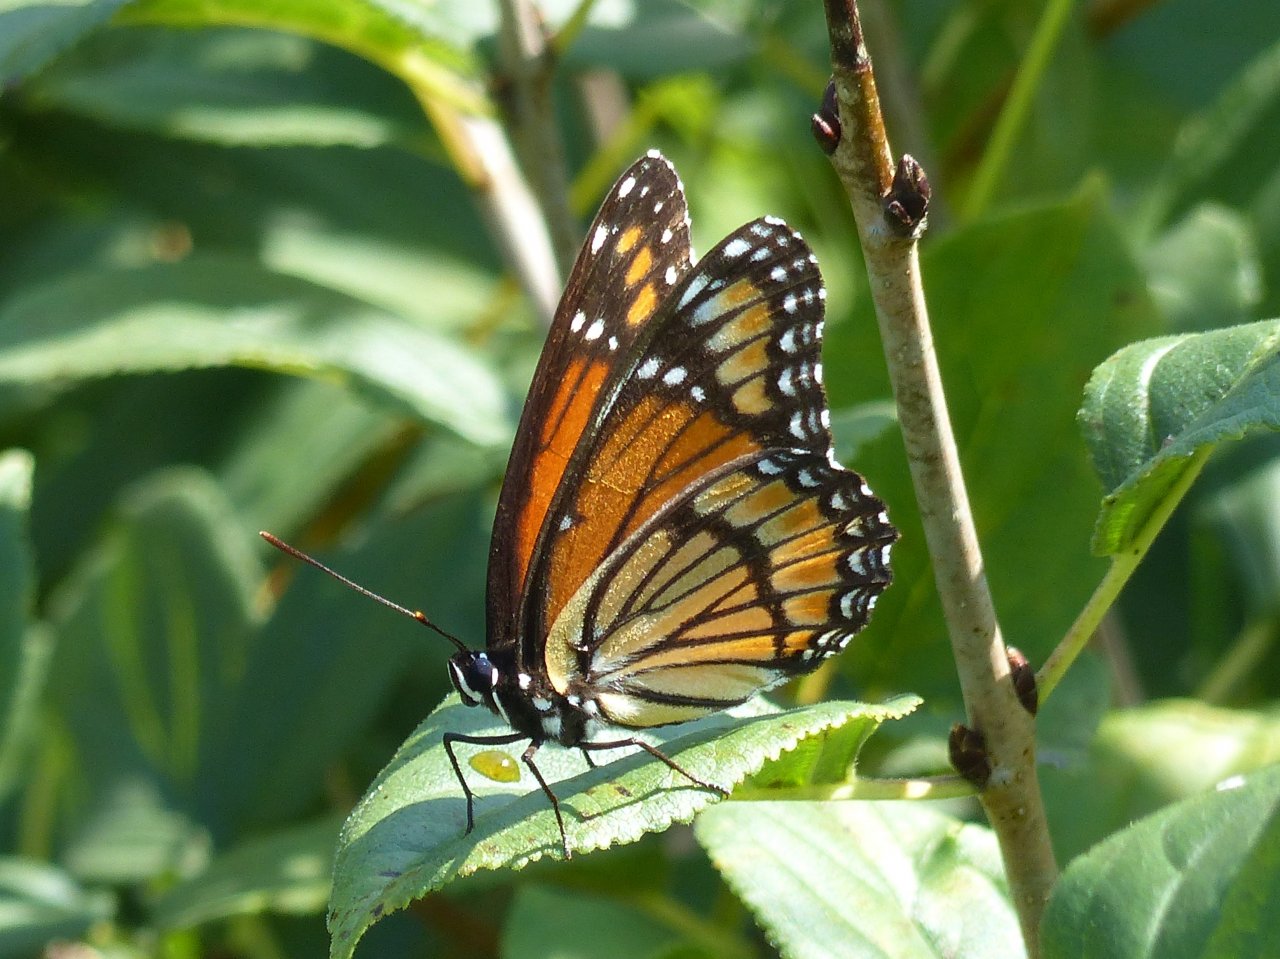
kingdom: Animalia
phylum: Arthropoda
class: Insecta
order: Lepidoptera
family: Nymphalidae
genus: Limenitis
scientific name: Limenitis archippus
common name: Viceroy
